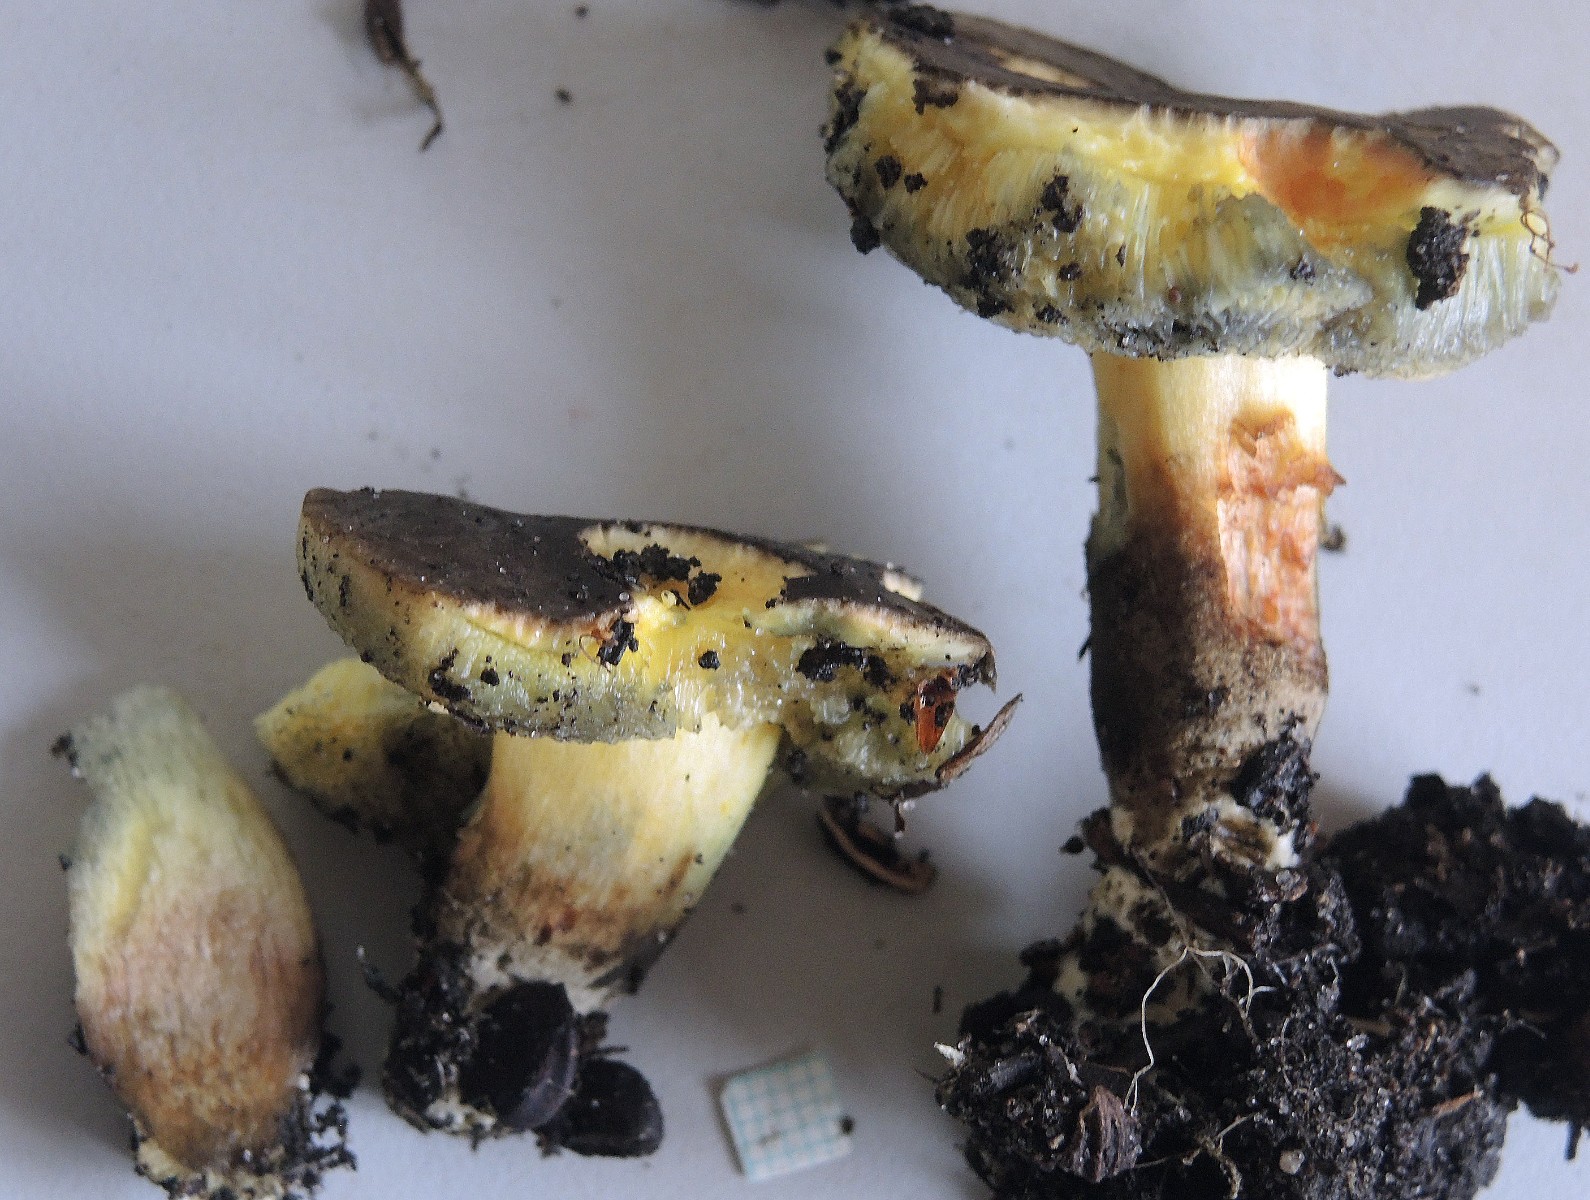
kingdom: Fungi
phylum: Basidiomycota
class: Agaricomycetes
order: Boletales
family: Boletaceae
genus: Xerocomellus
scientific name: Xerocomellus porosporus
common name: hvidsprukken rørhat
